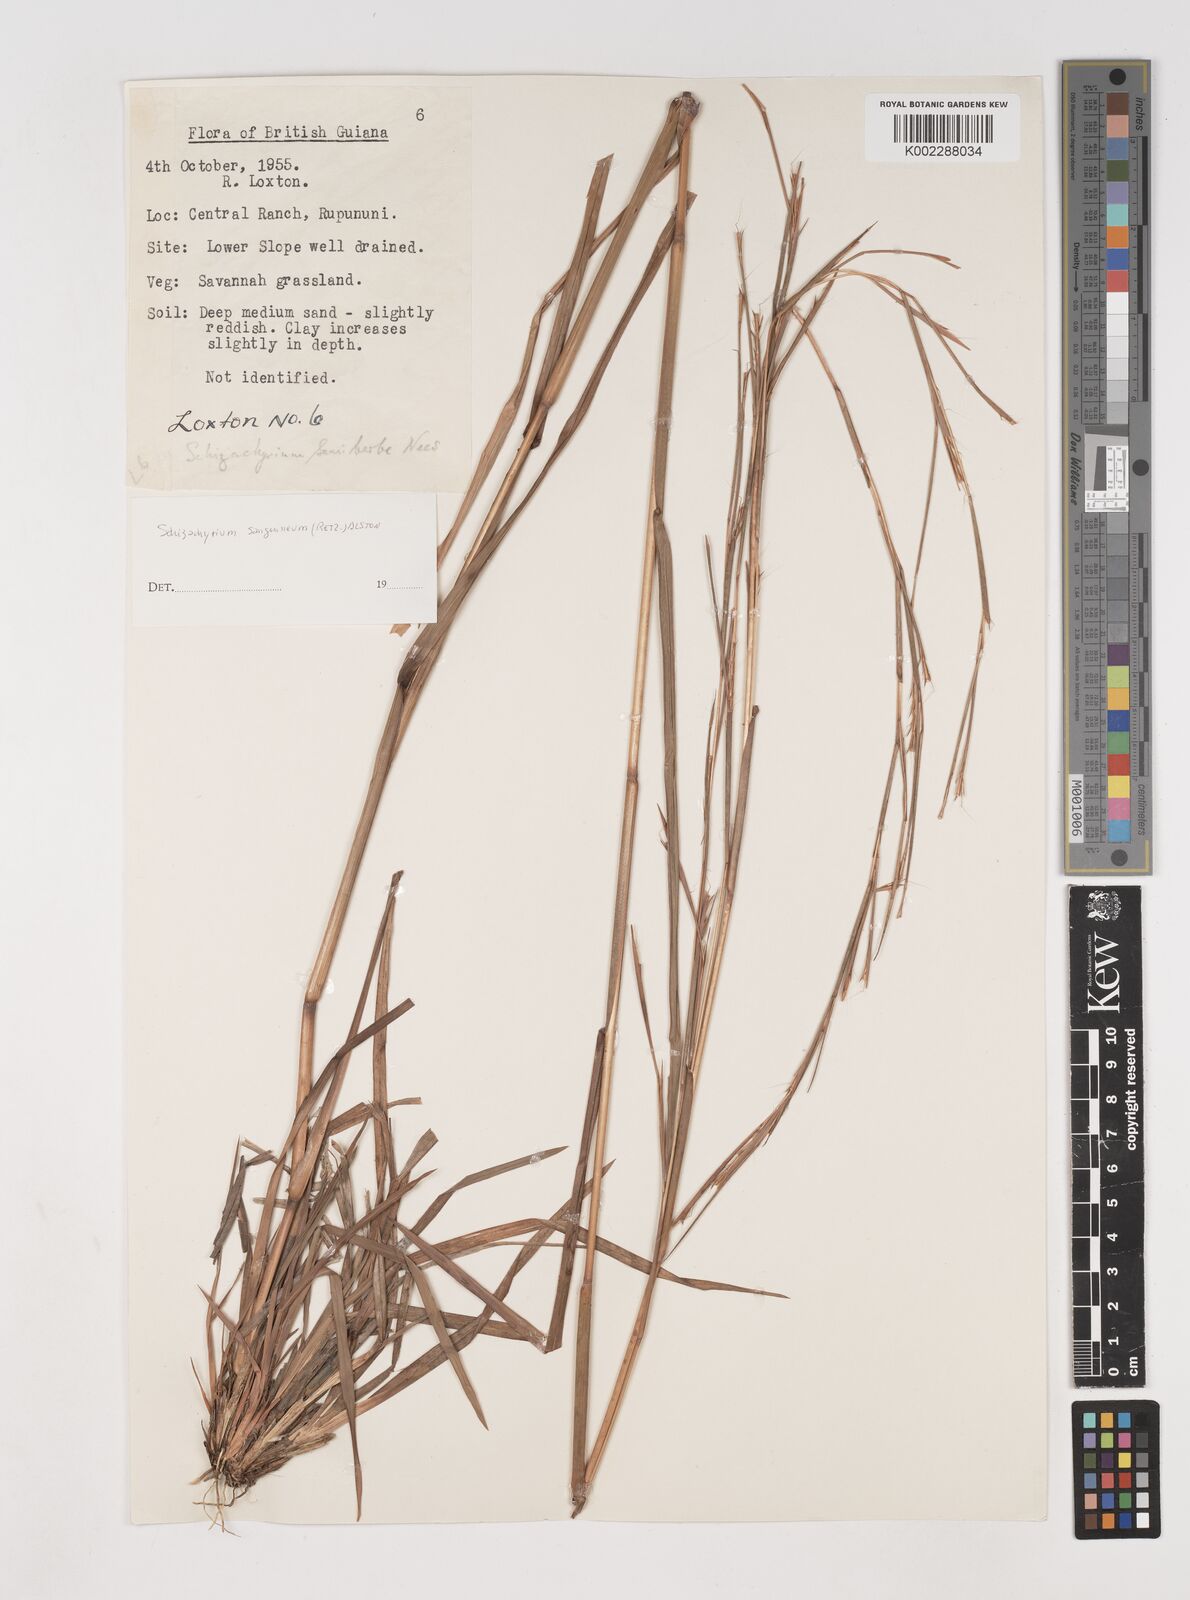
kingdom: Plantae
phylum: Tracheophyta
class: Liliopsida
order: Poales
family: Poaceae
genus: Schizachyrium
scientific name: Schizachyrium sanguineum
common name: Crimson bluestem
